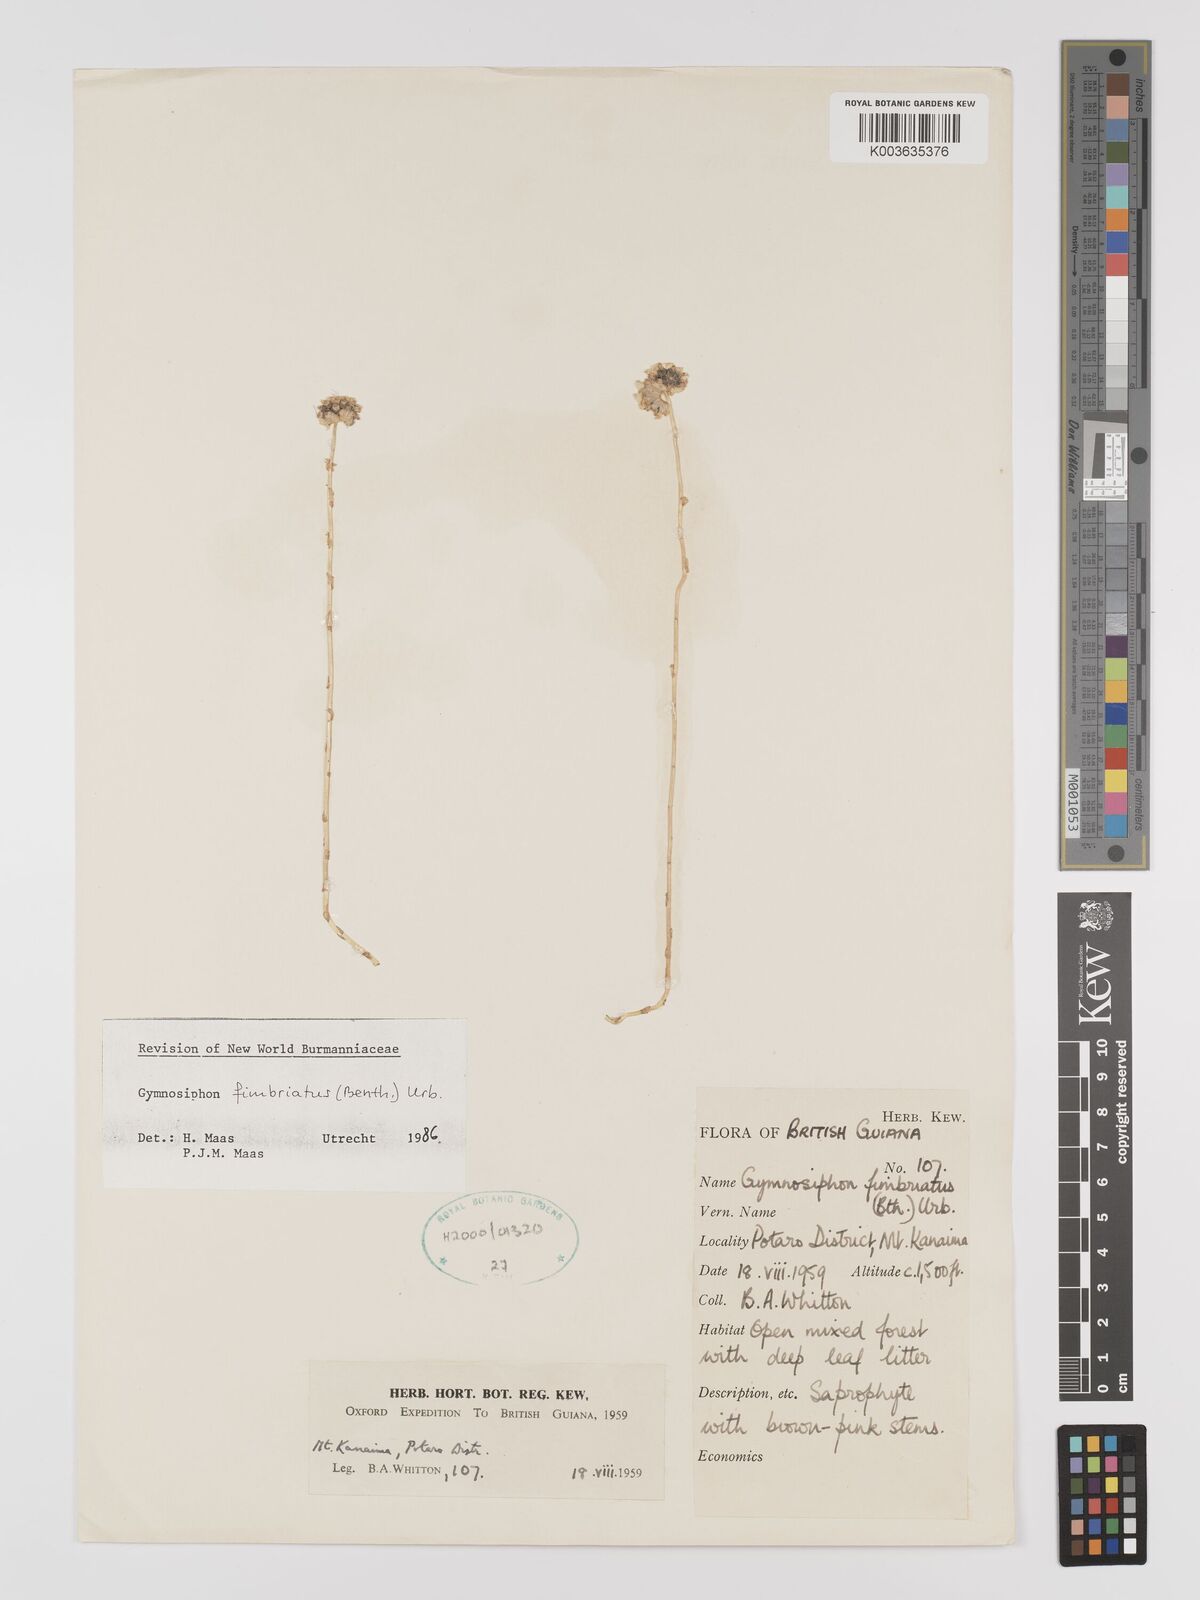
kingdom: Plantae
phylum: Tracheophyta
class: Liliopsida
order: Dioscoreales
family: Burmanniaceae
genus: Gymnosiphon
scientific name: Gymnosiphon fimbriatus
